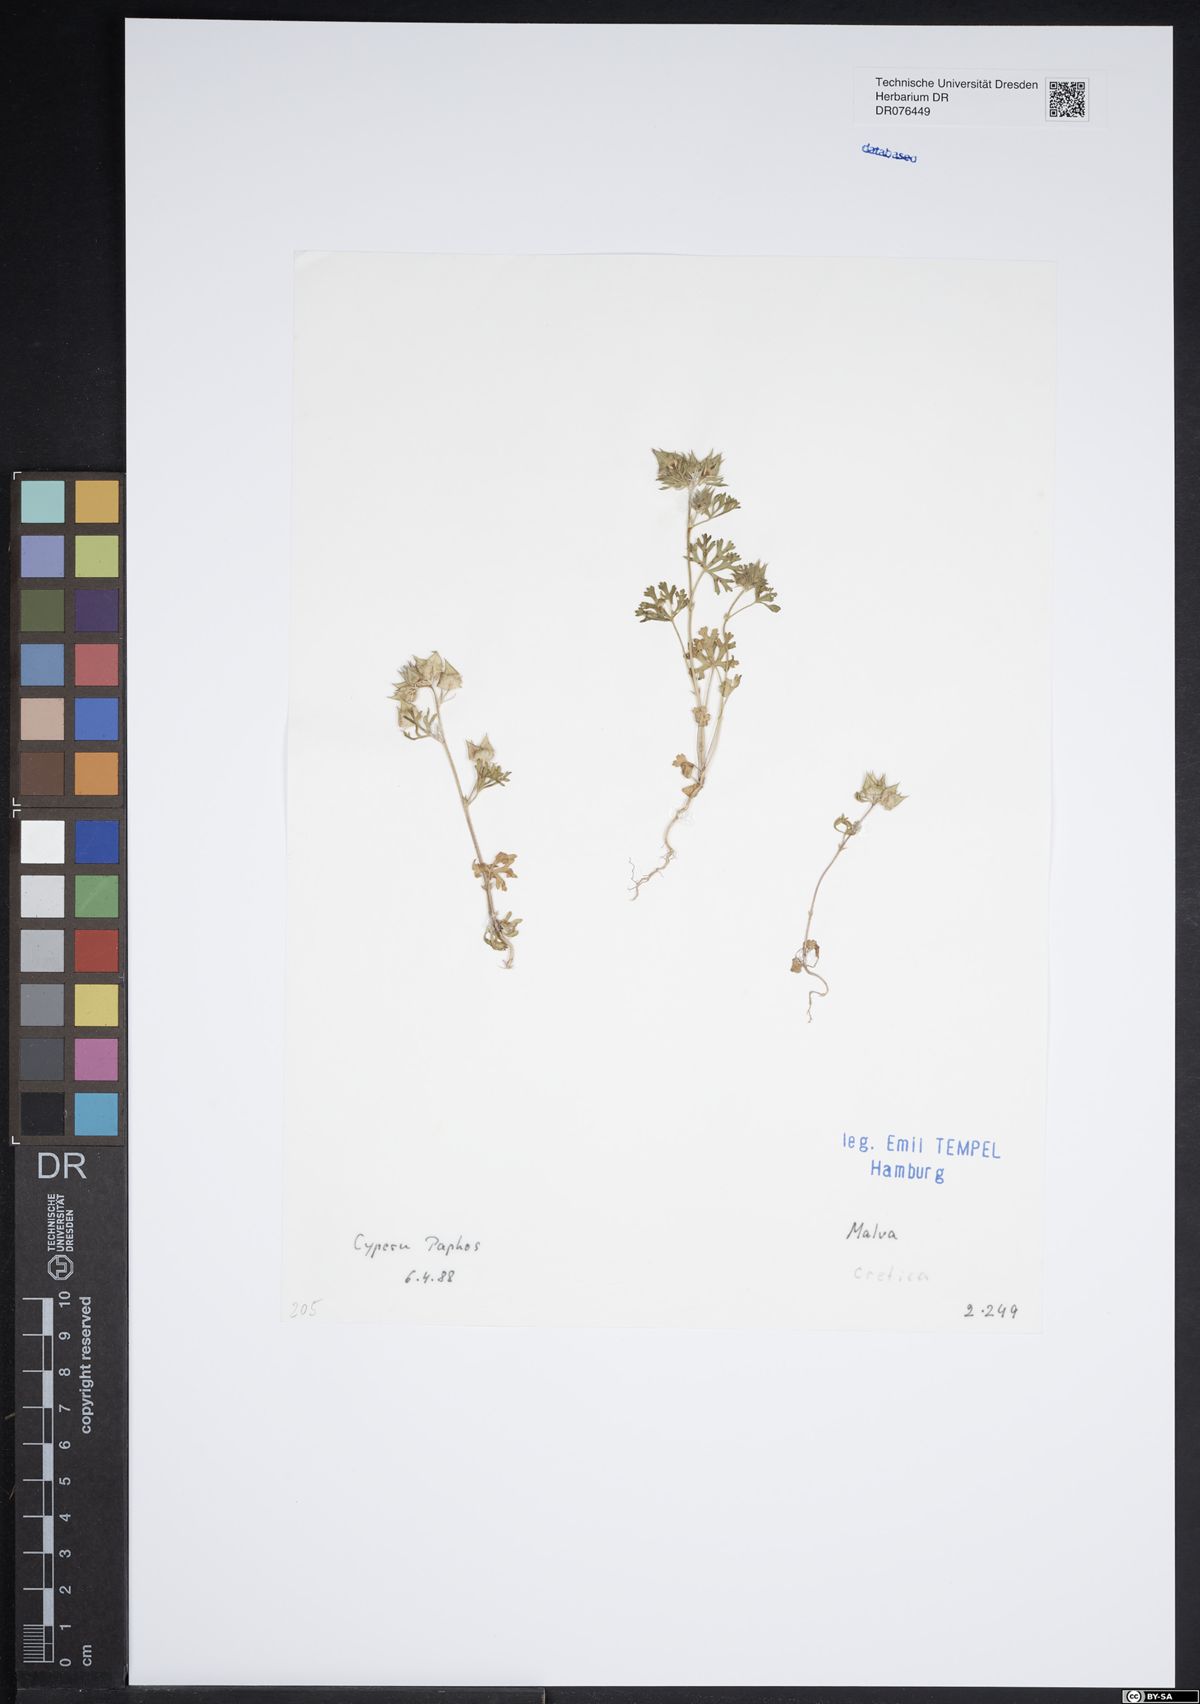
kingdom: Plantae
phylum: Tracheophyta
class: Magnoliopsida
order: Malvales
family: Malvaceae
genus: Malva
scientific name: Malva cretica
